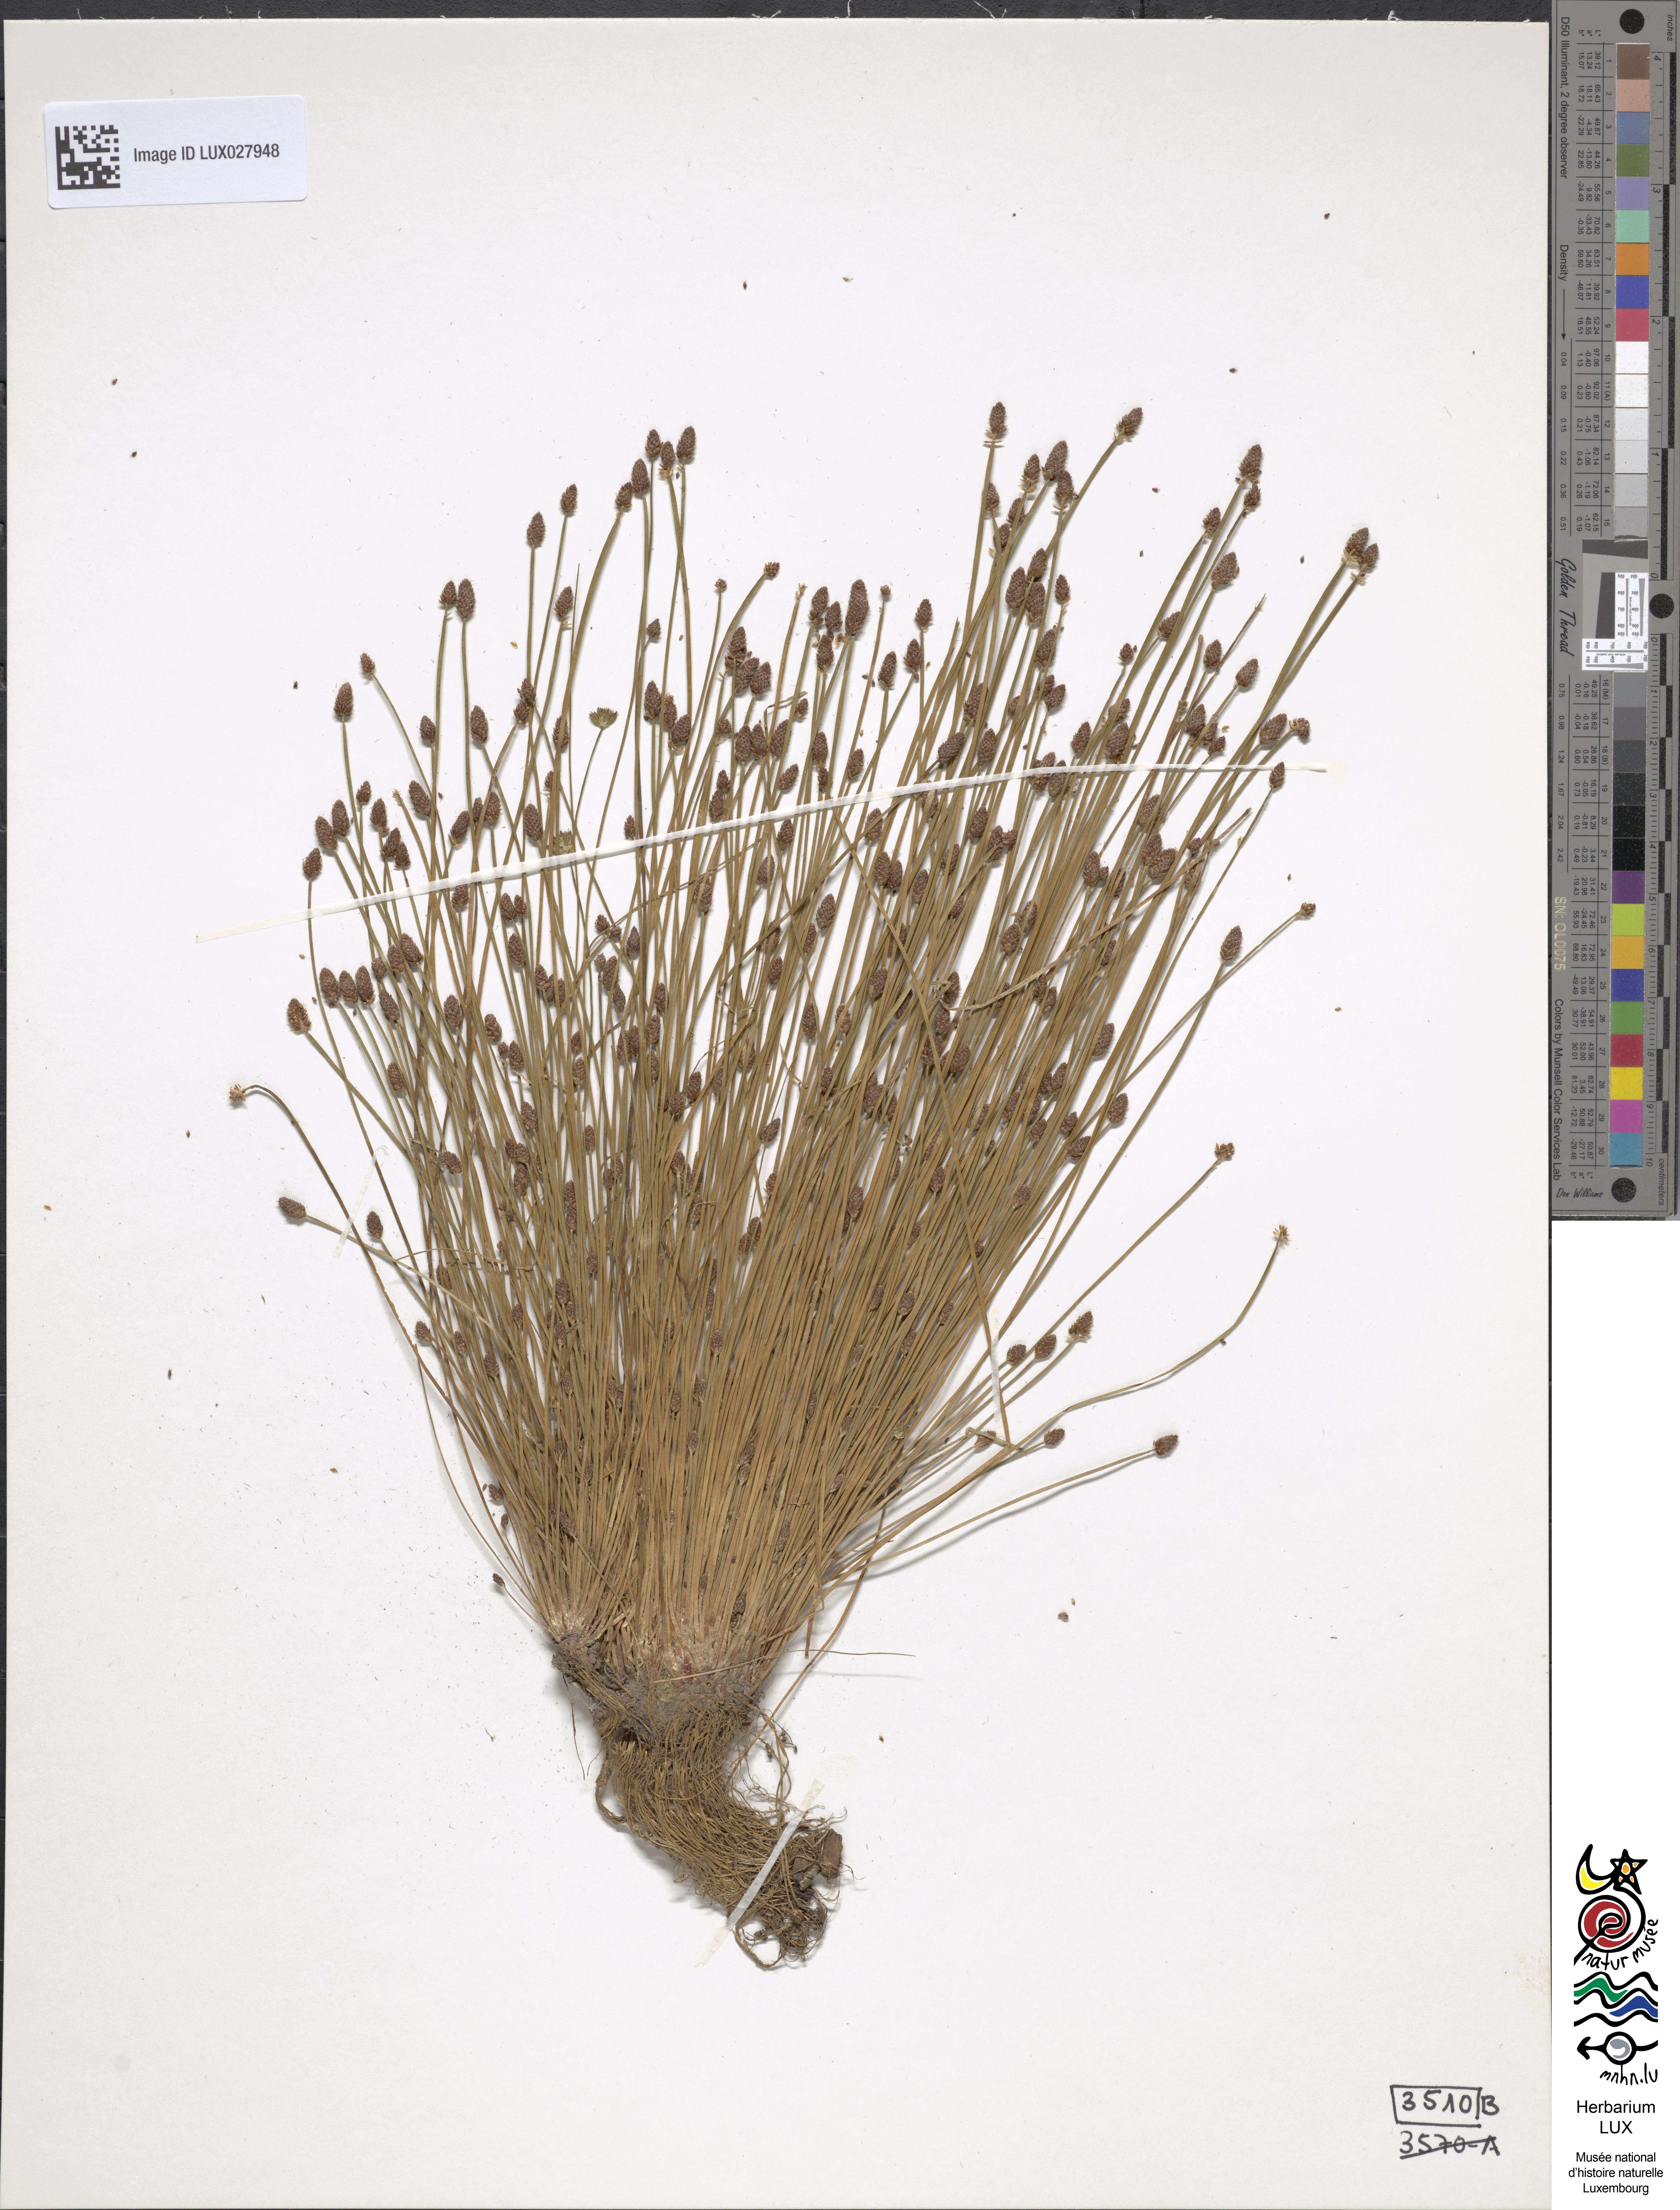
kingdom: Plantae
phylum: Tracheophyta
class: Liliopsida
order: Poales
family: Cyperaceae
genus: Eleocharis
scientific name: Eleocharis ovata
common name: Oval spike-rush
